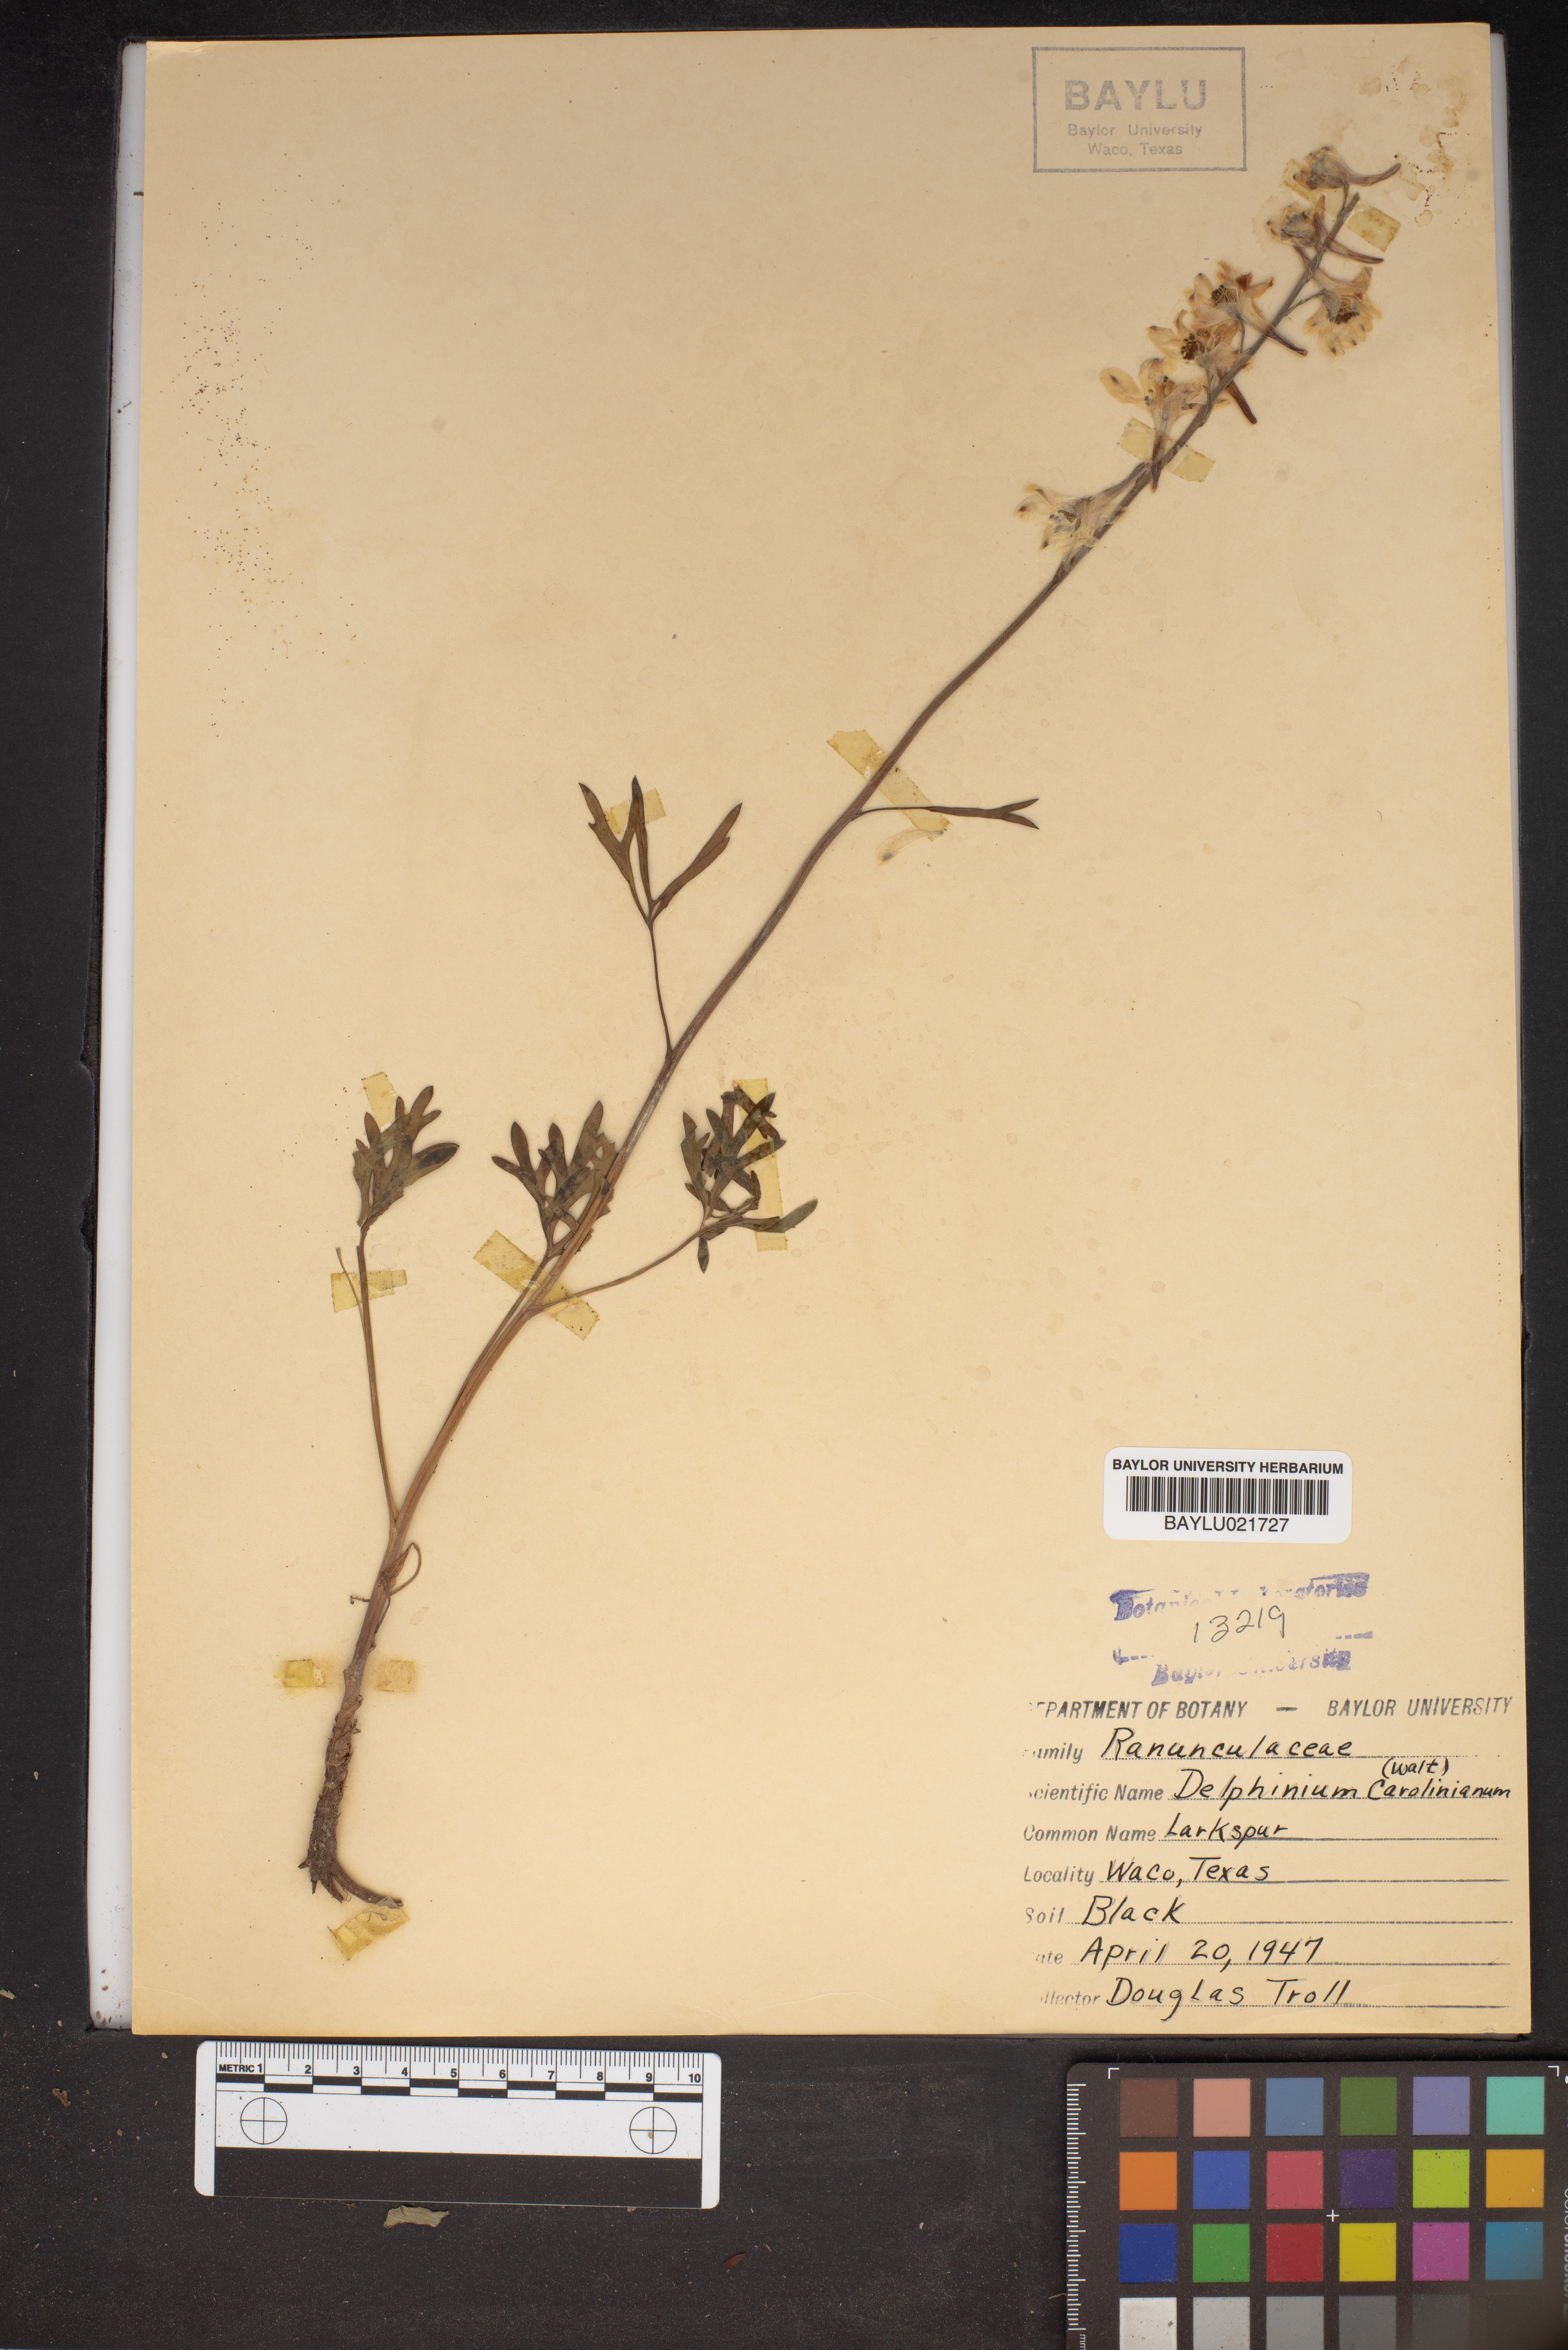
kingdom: Plantae
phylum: Tracheophyta
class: Magnoliopsida
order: Ranunculales
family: Ranunculaceae
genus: Delphinium
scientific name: Delphinium carolinianum
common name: Carolina larkspur
